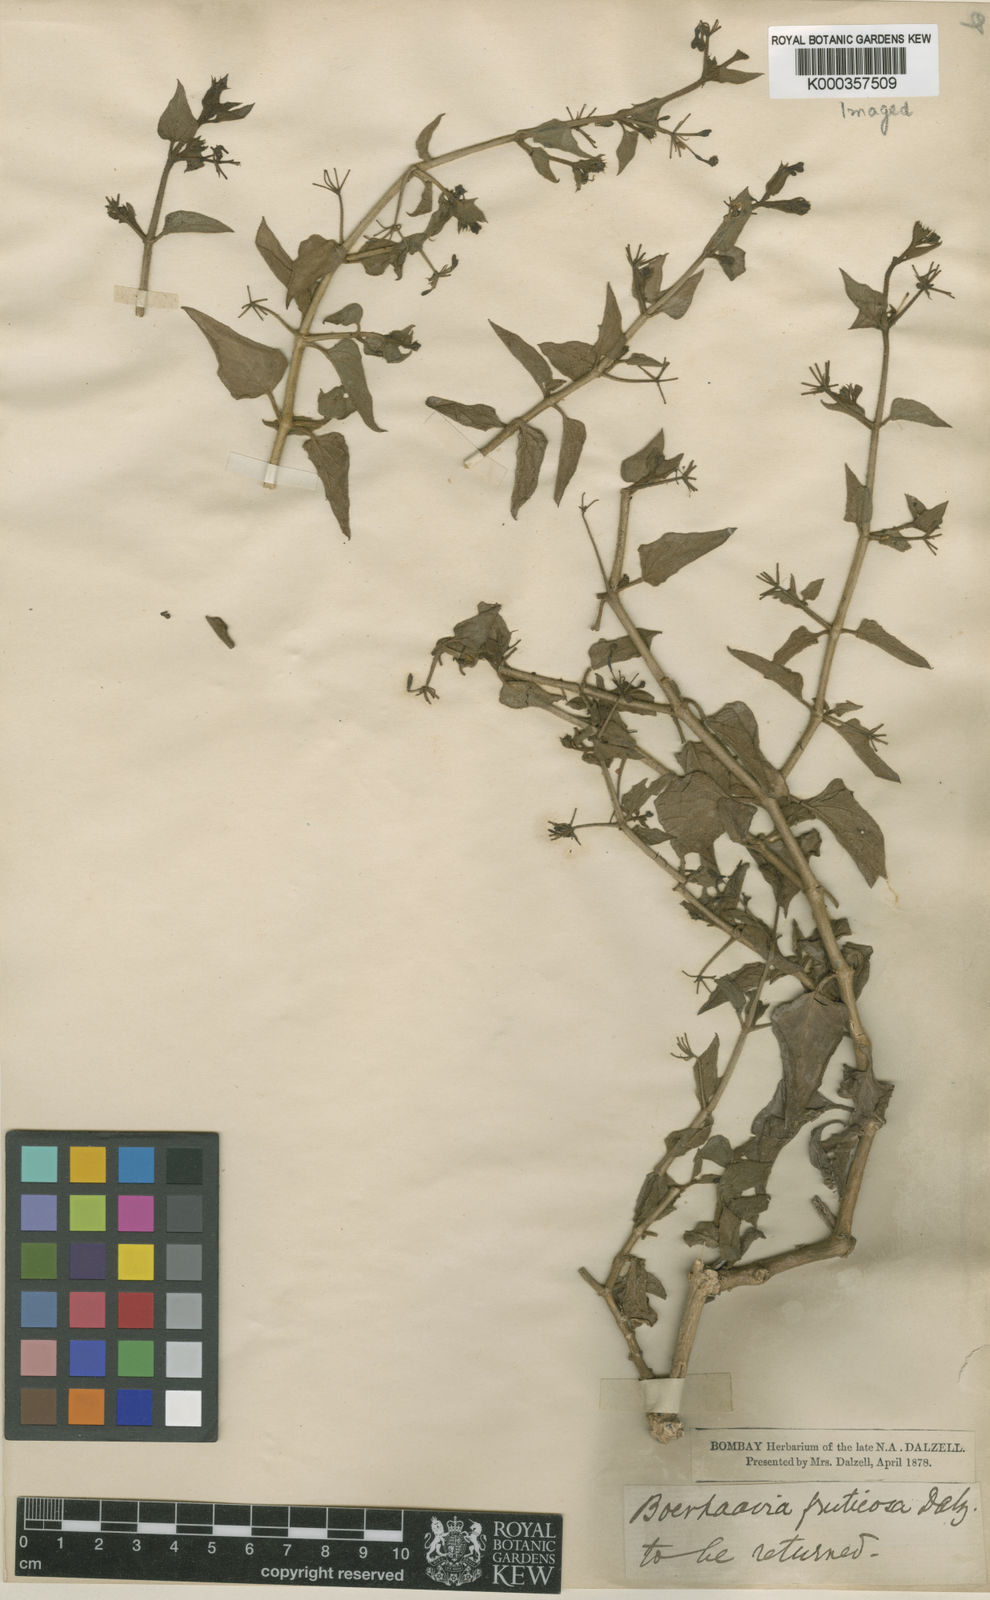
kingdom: Plantae
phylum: Tracheophyta
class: Magnoliopsida
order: Caryophyllales
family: Nyctaginaceae
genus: Commicarpus
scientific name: Commicarpus grandiflorus
